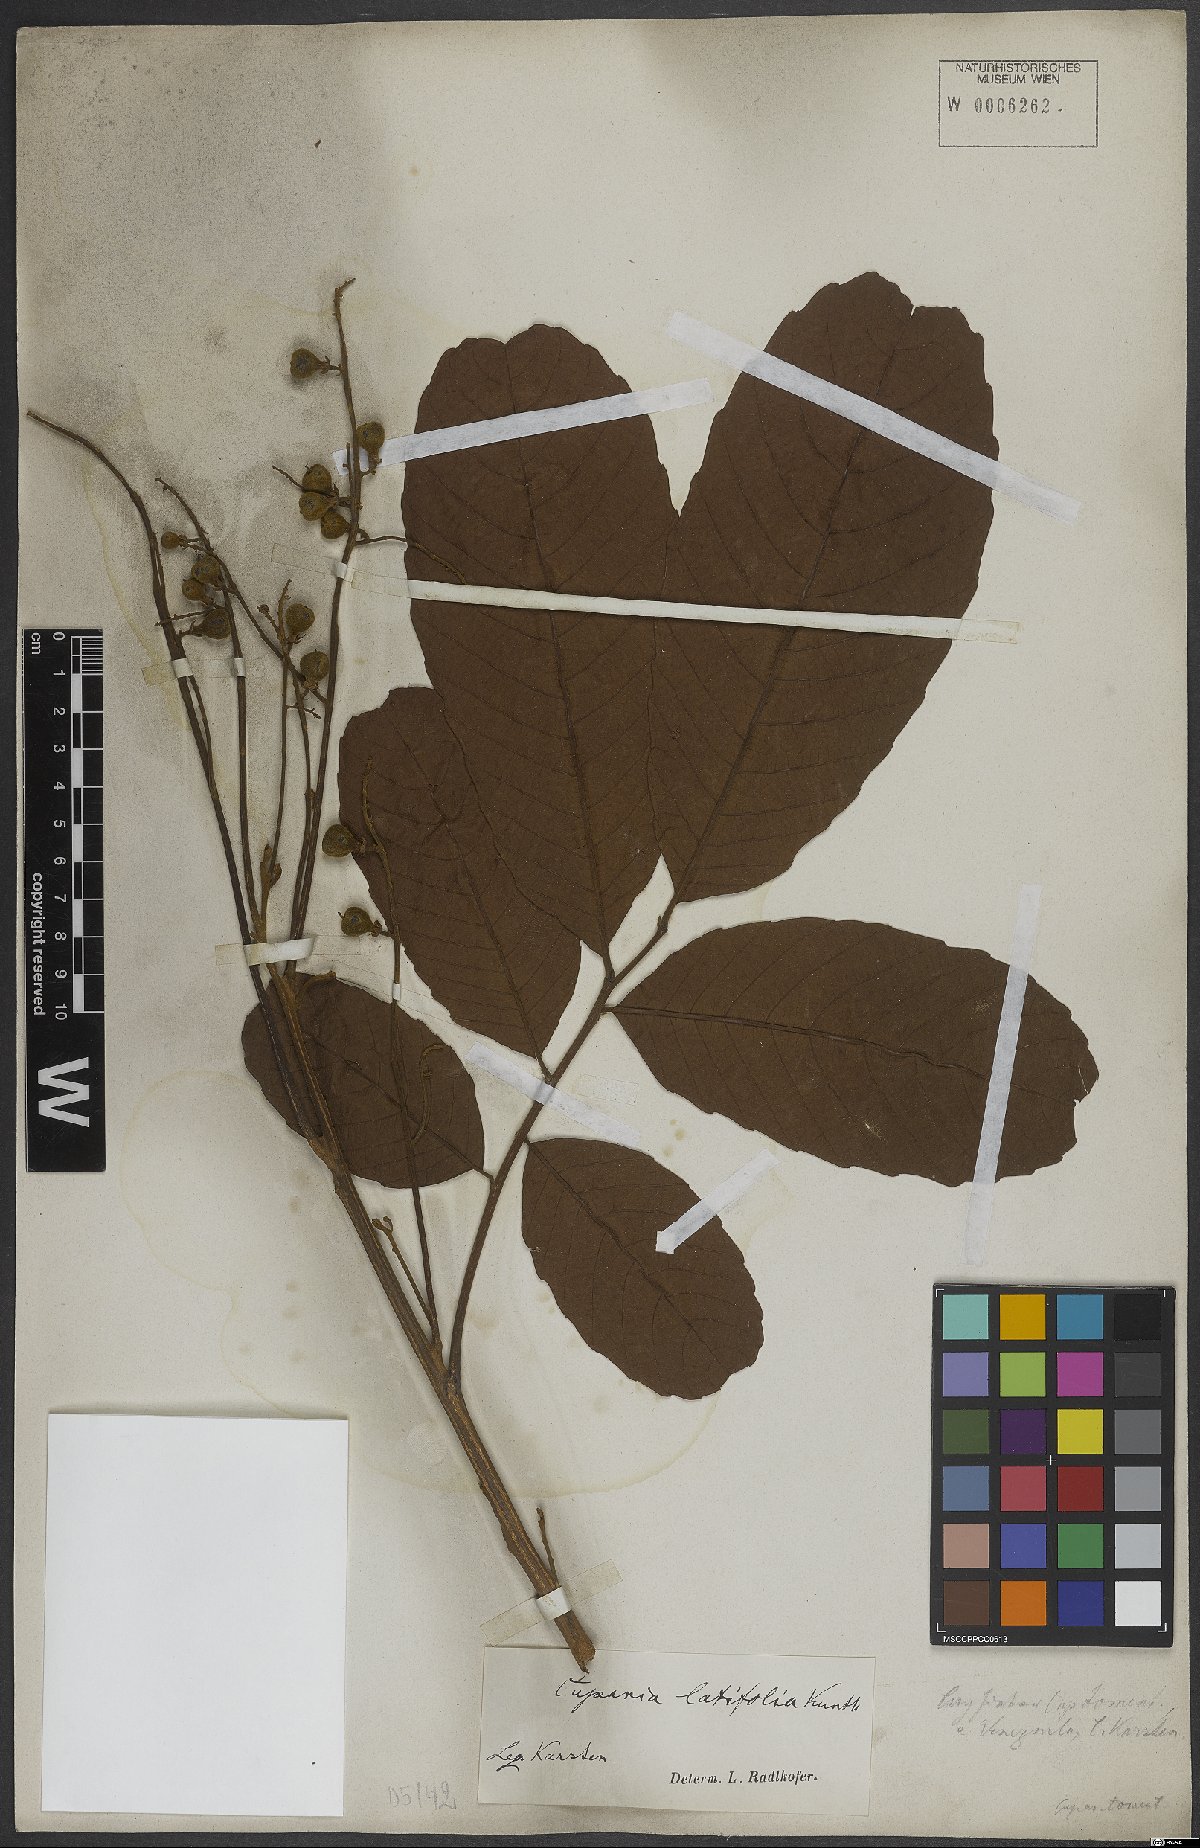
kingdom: Plantae
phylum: Tracheophyta
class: Magnoliopsida
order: Sapindales
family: Sapindaceae
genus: Cupania
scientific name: Cupania latifolia
